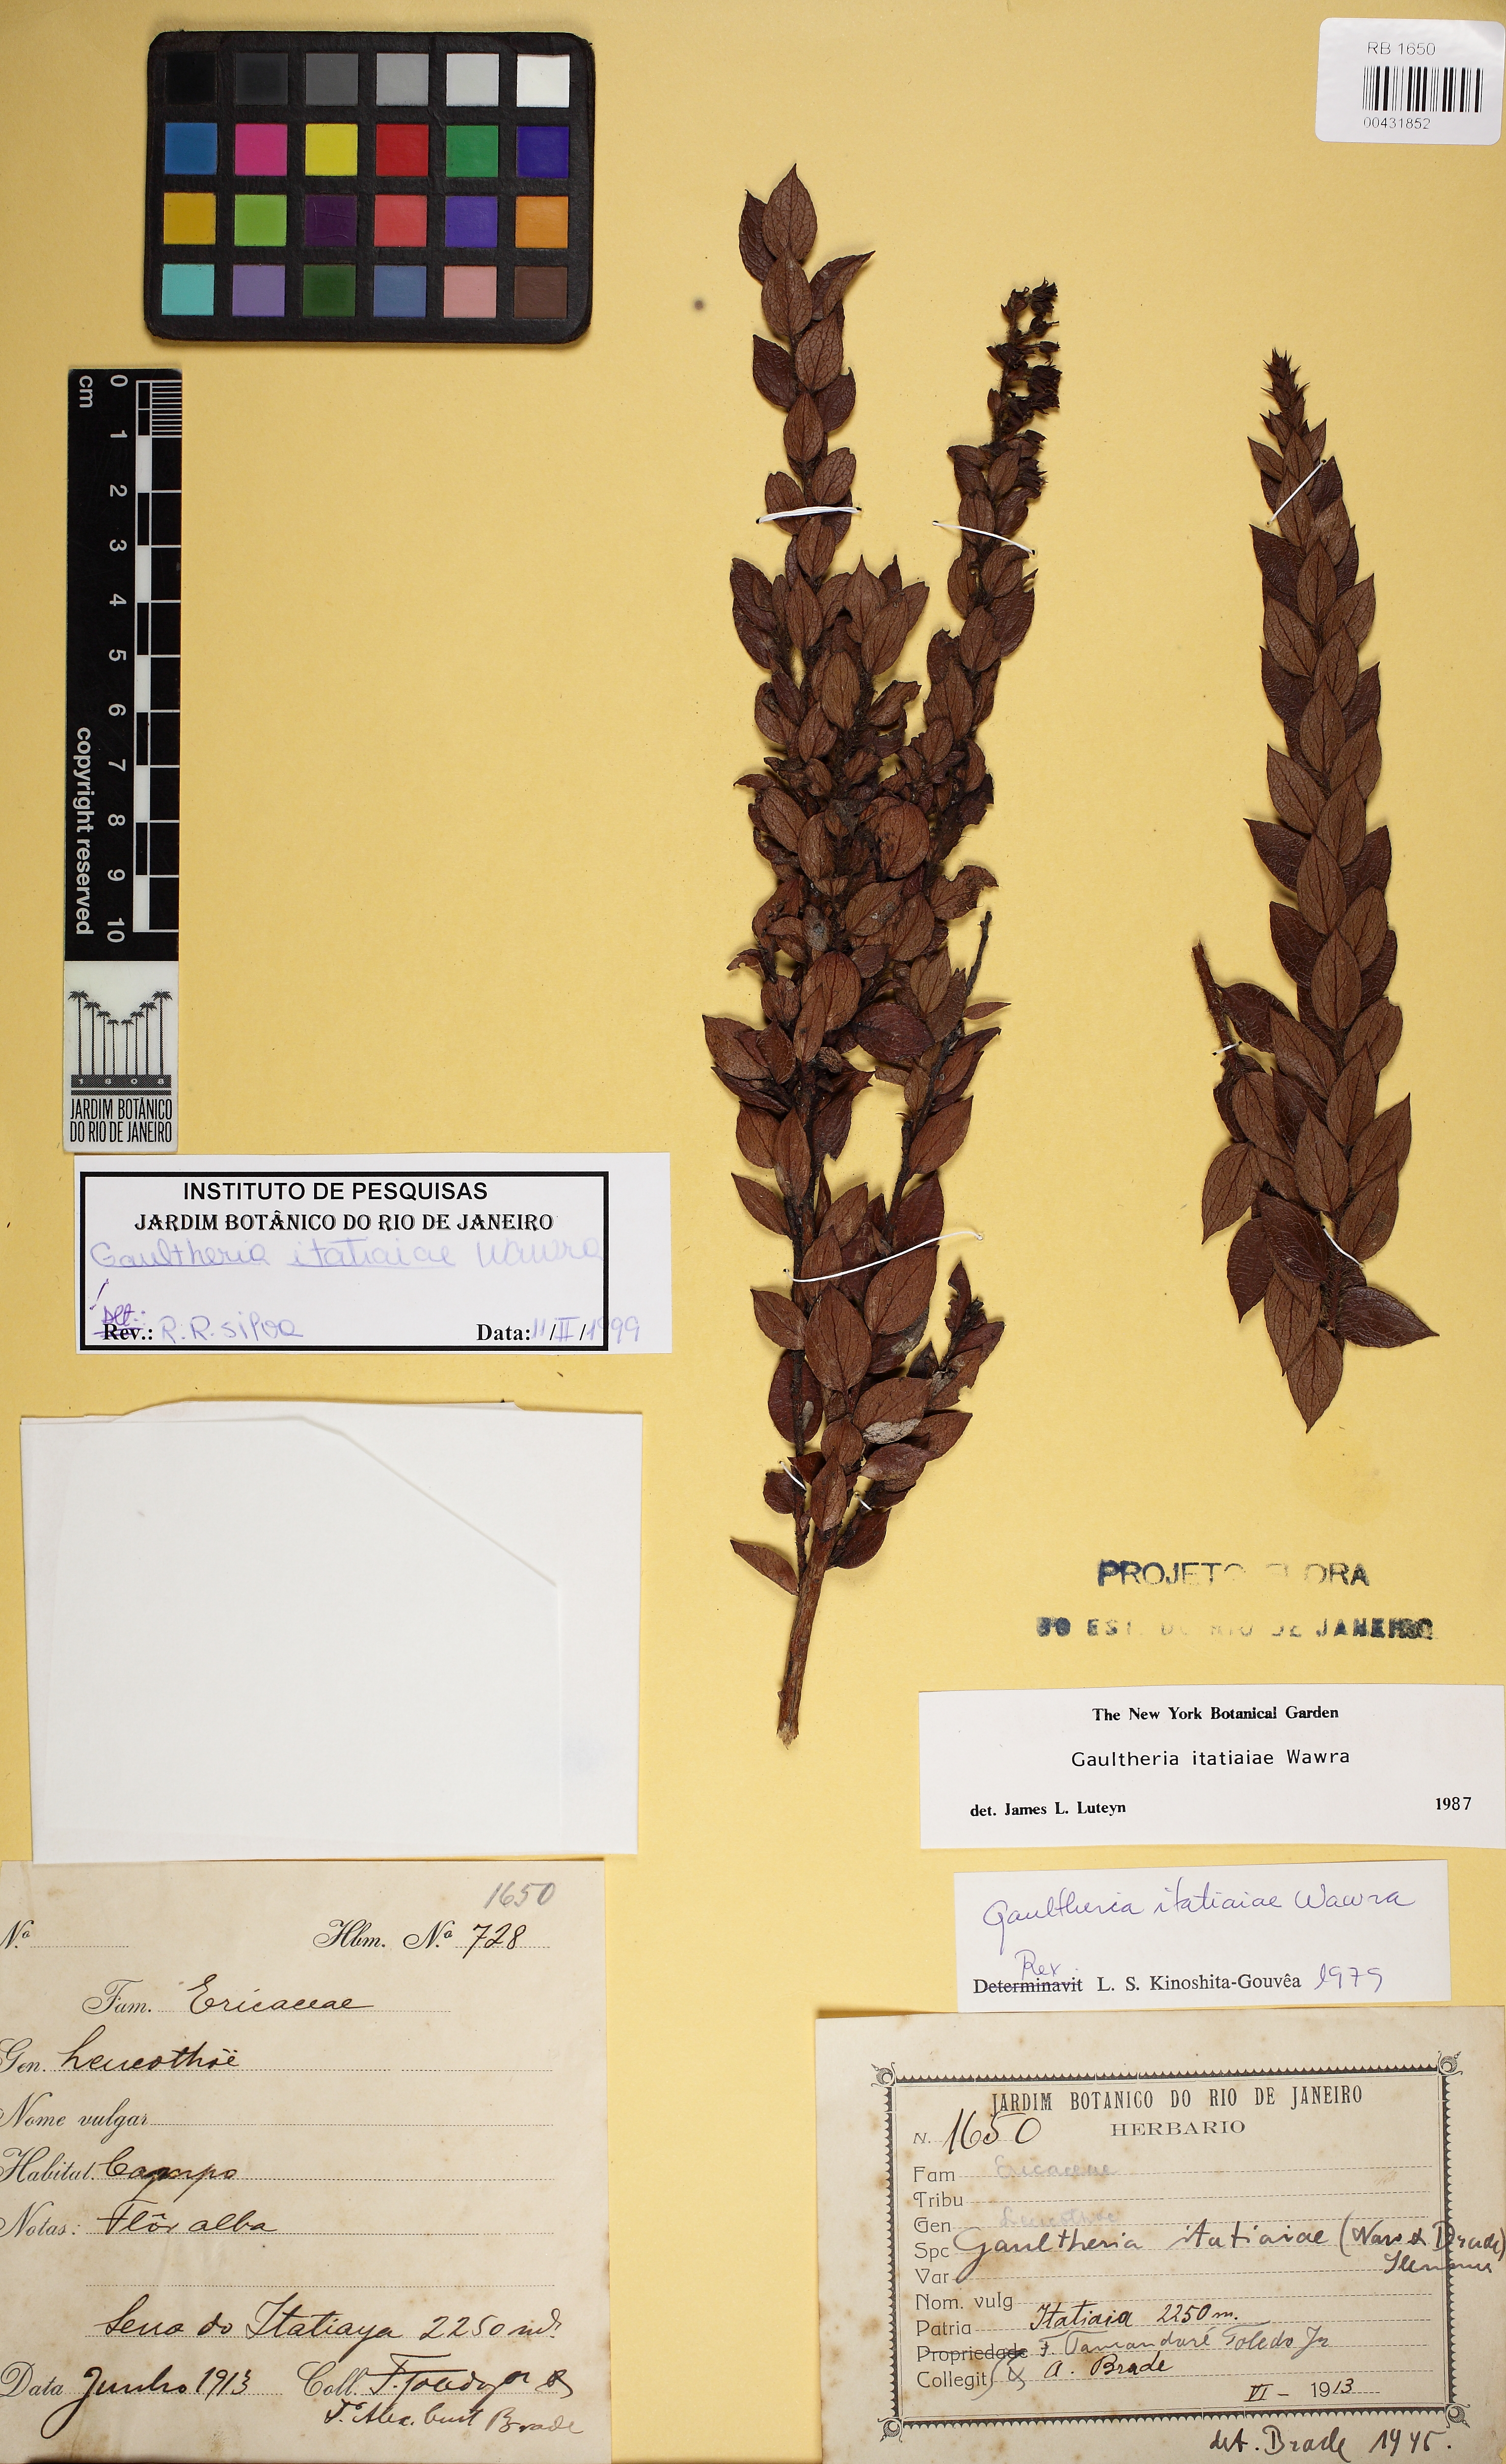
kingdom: Plantae
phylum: Tracheophyta
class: Magnoliopsida
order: Ericales
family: Ericaceae
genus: Gaultheria
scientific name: Gaultheria itatiaiae
